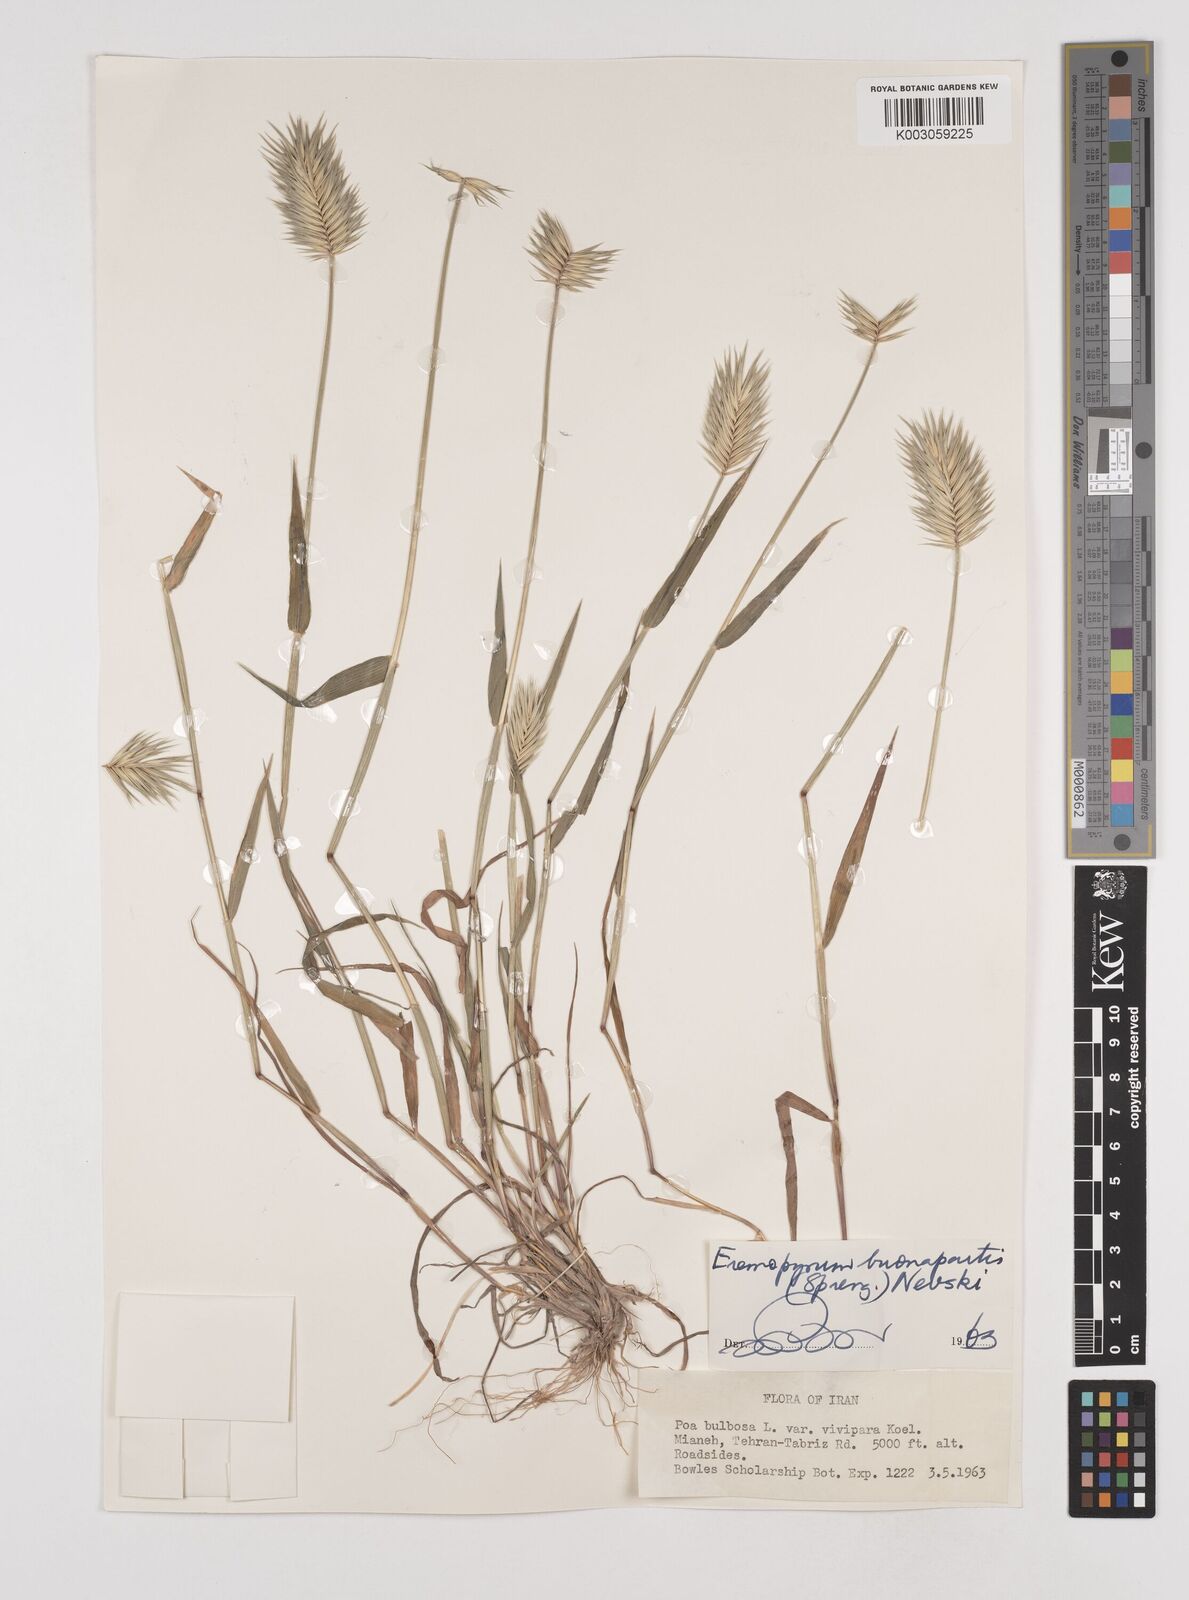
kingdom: Plantae
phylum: Tracheophyta
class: Liliopsida
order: Poales
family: Poaceae
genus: Eremopyrum
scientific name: Eremopyrum bonaepartis
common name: Tapertip false wheatgrass
